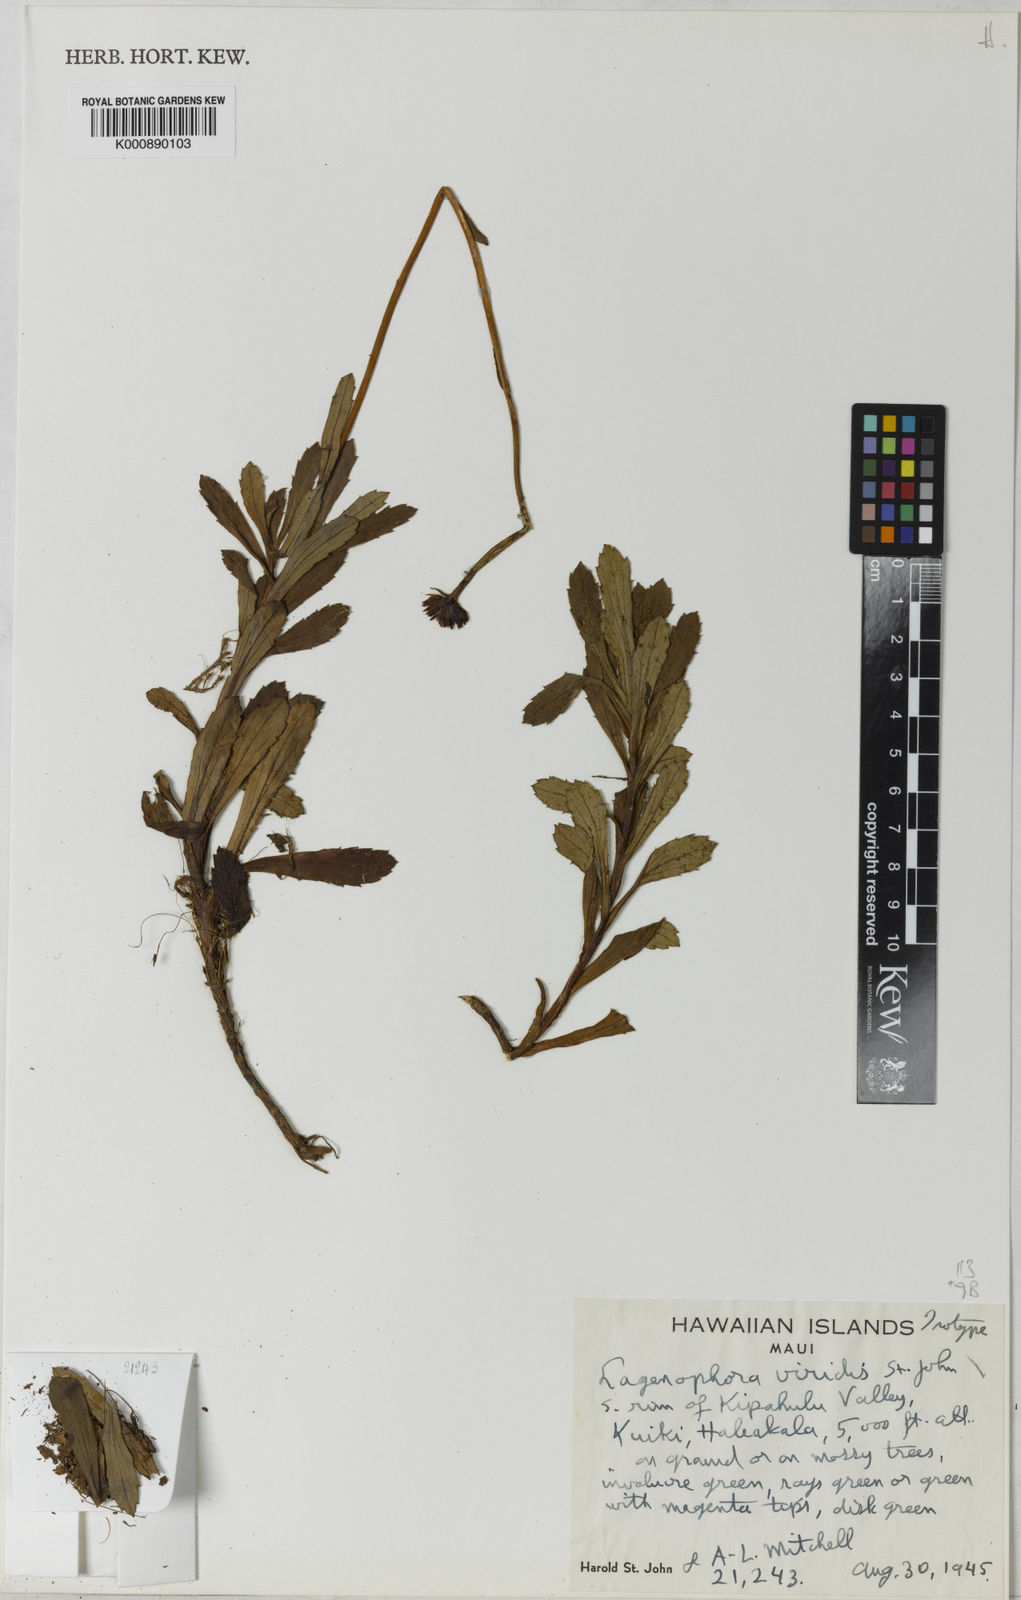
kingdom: Plantae
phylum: Tracheophyta
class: Magnoliopsida
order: Asterales
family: Asteraceae
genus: Helodeaster
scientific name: Helodeaster maviensis
